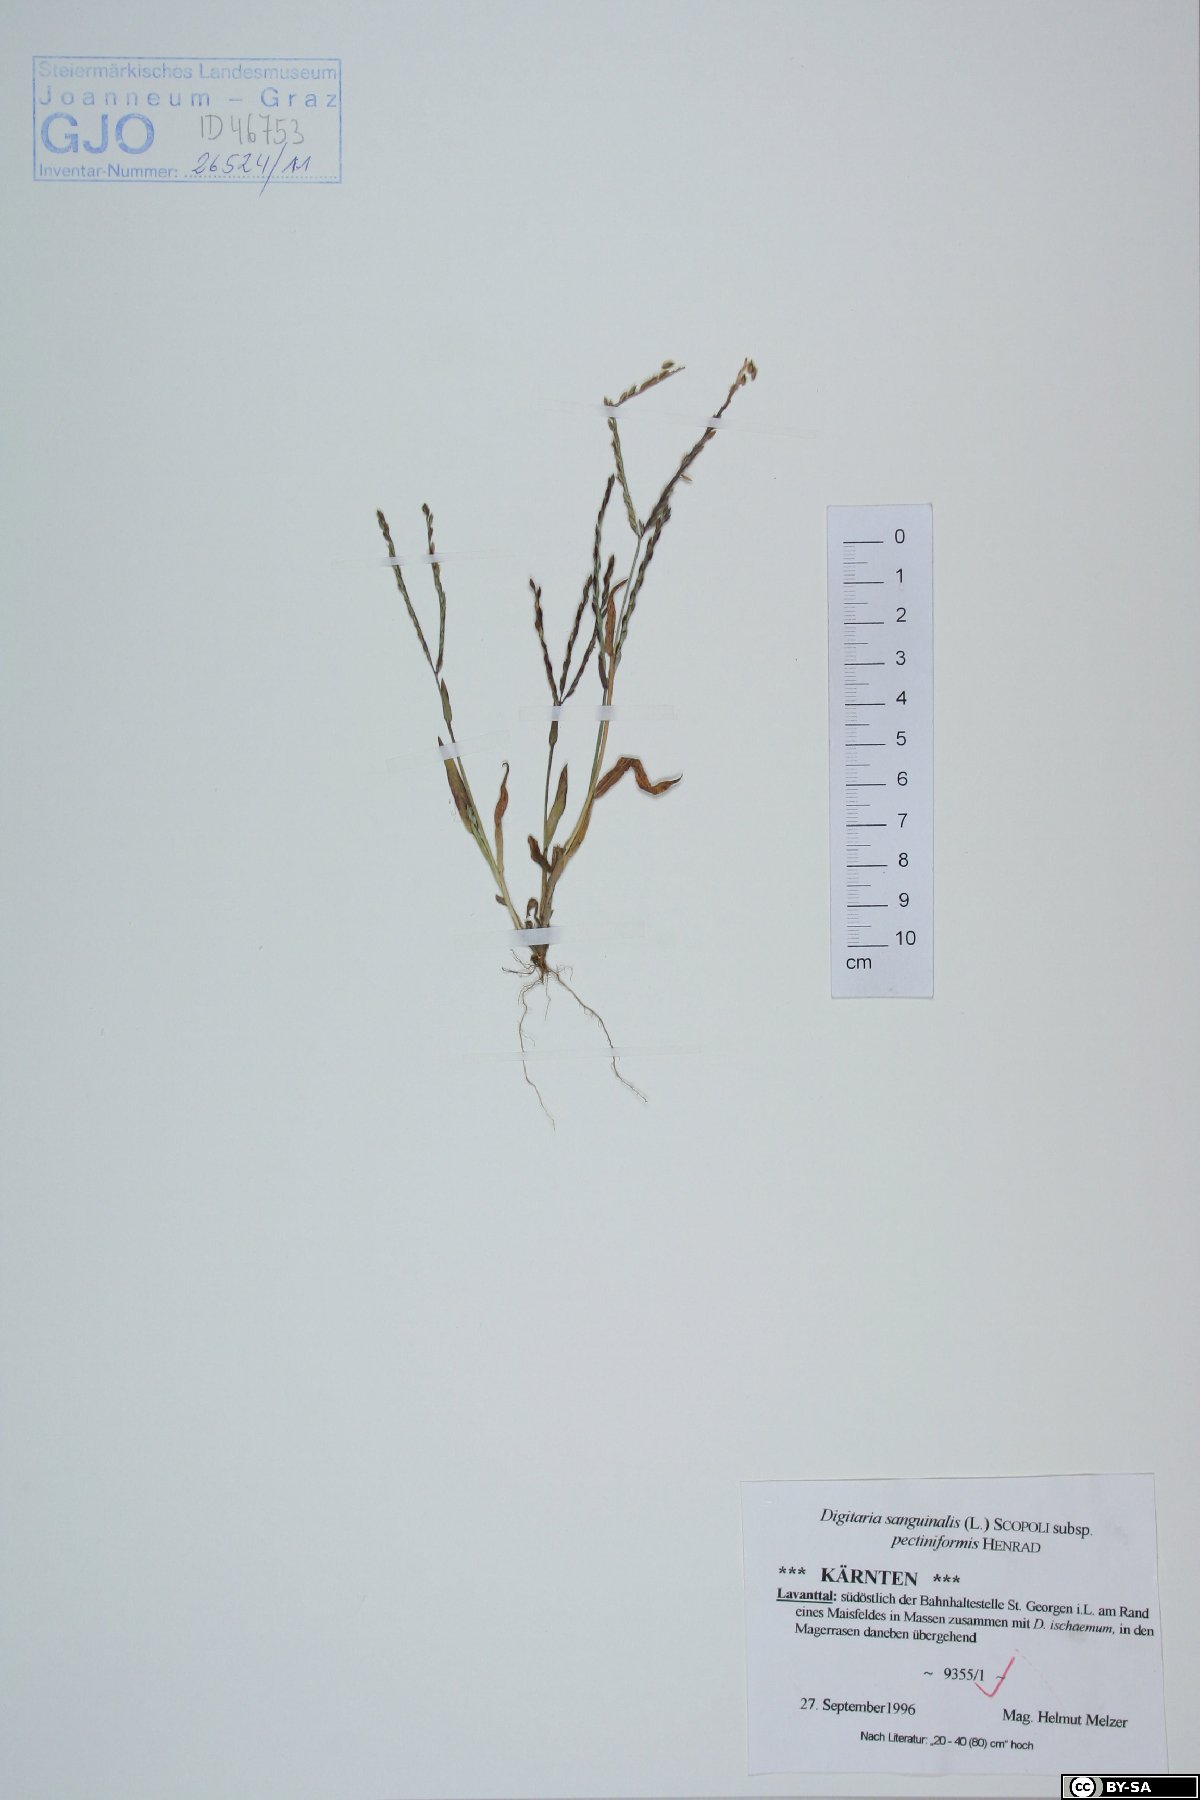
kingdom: Plantae
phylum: Tracheophyta
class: Liliopsida
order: Poales
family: Poaceae
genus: Digitaria
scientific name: Digitaria sanguinalis
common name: Hairy crabgrass
